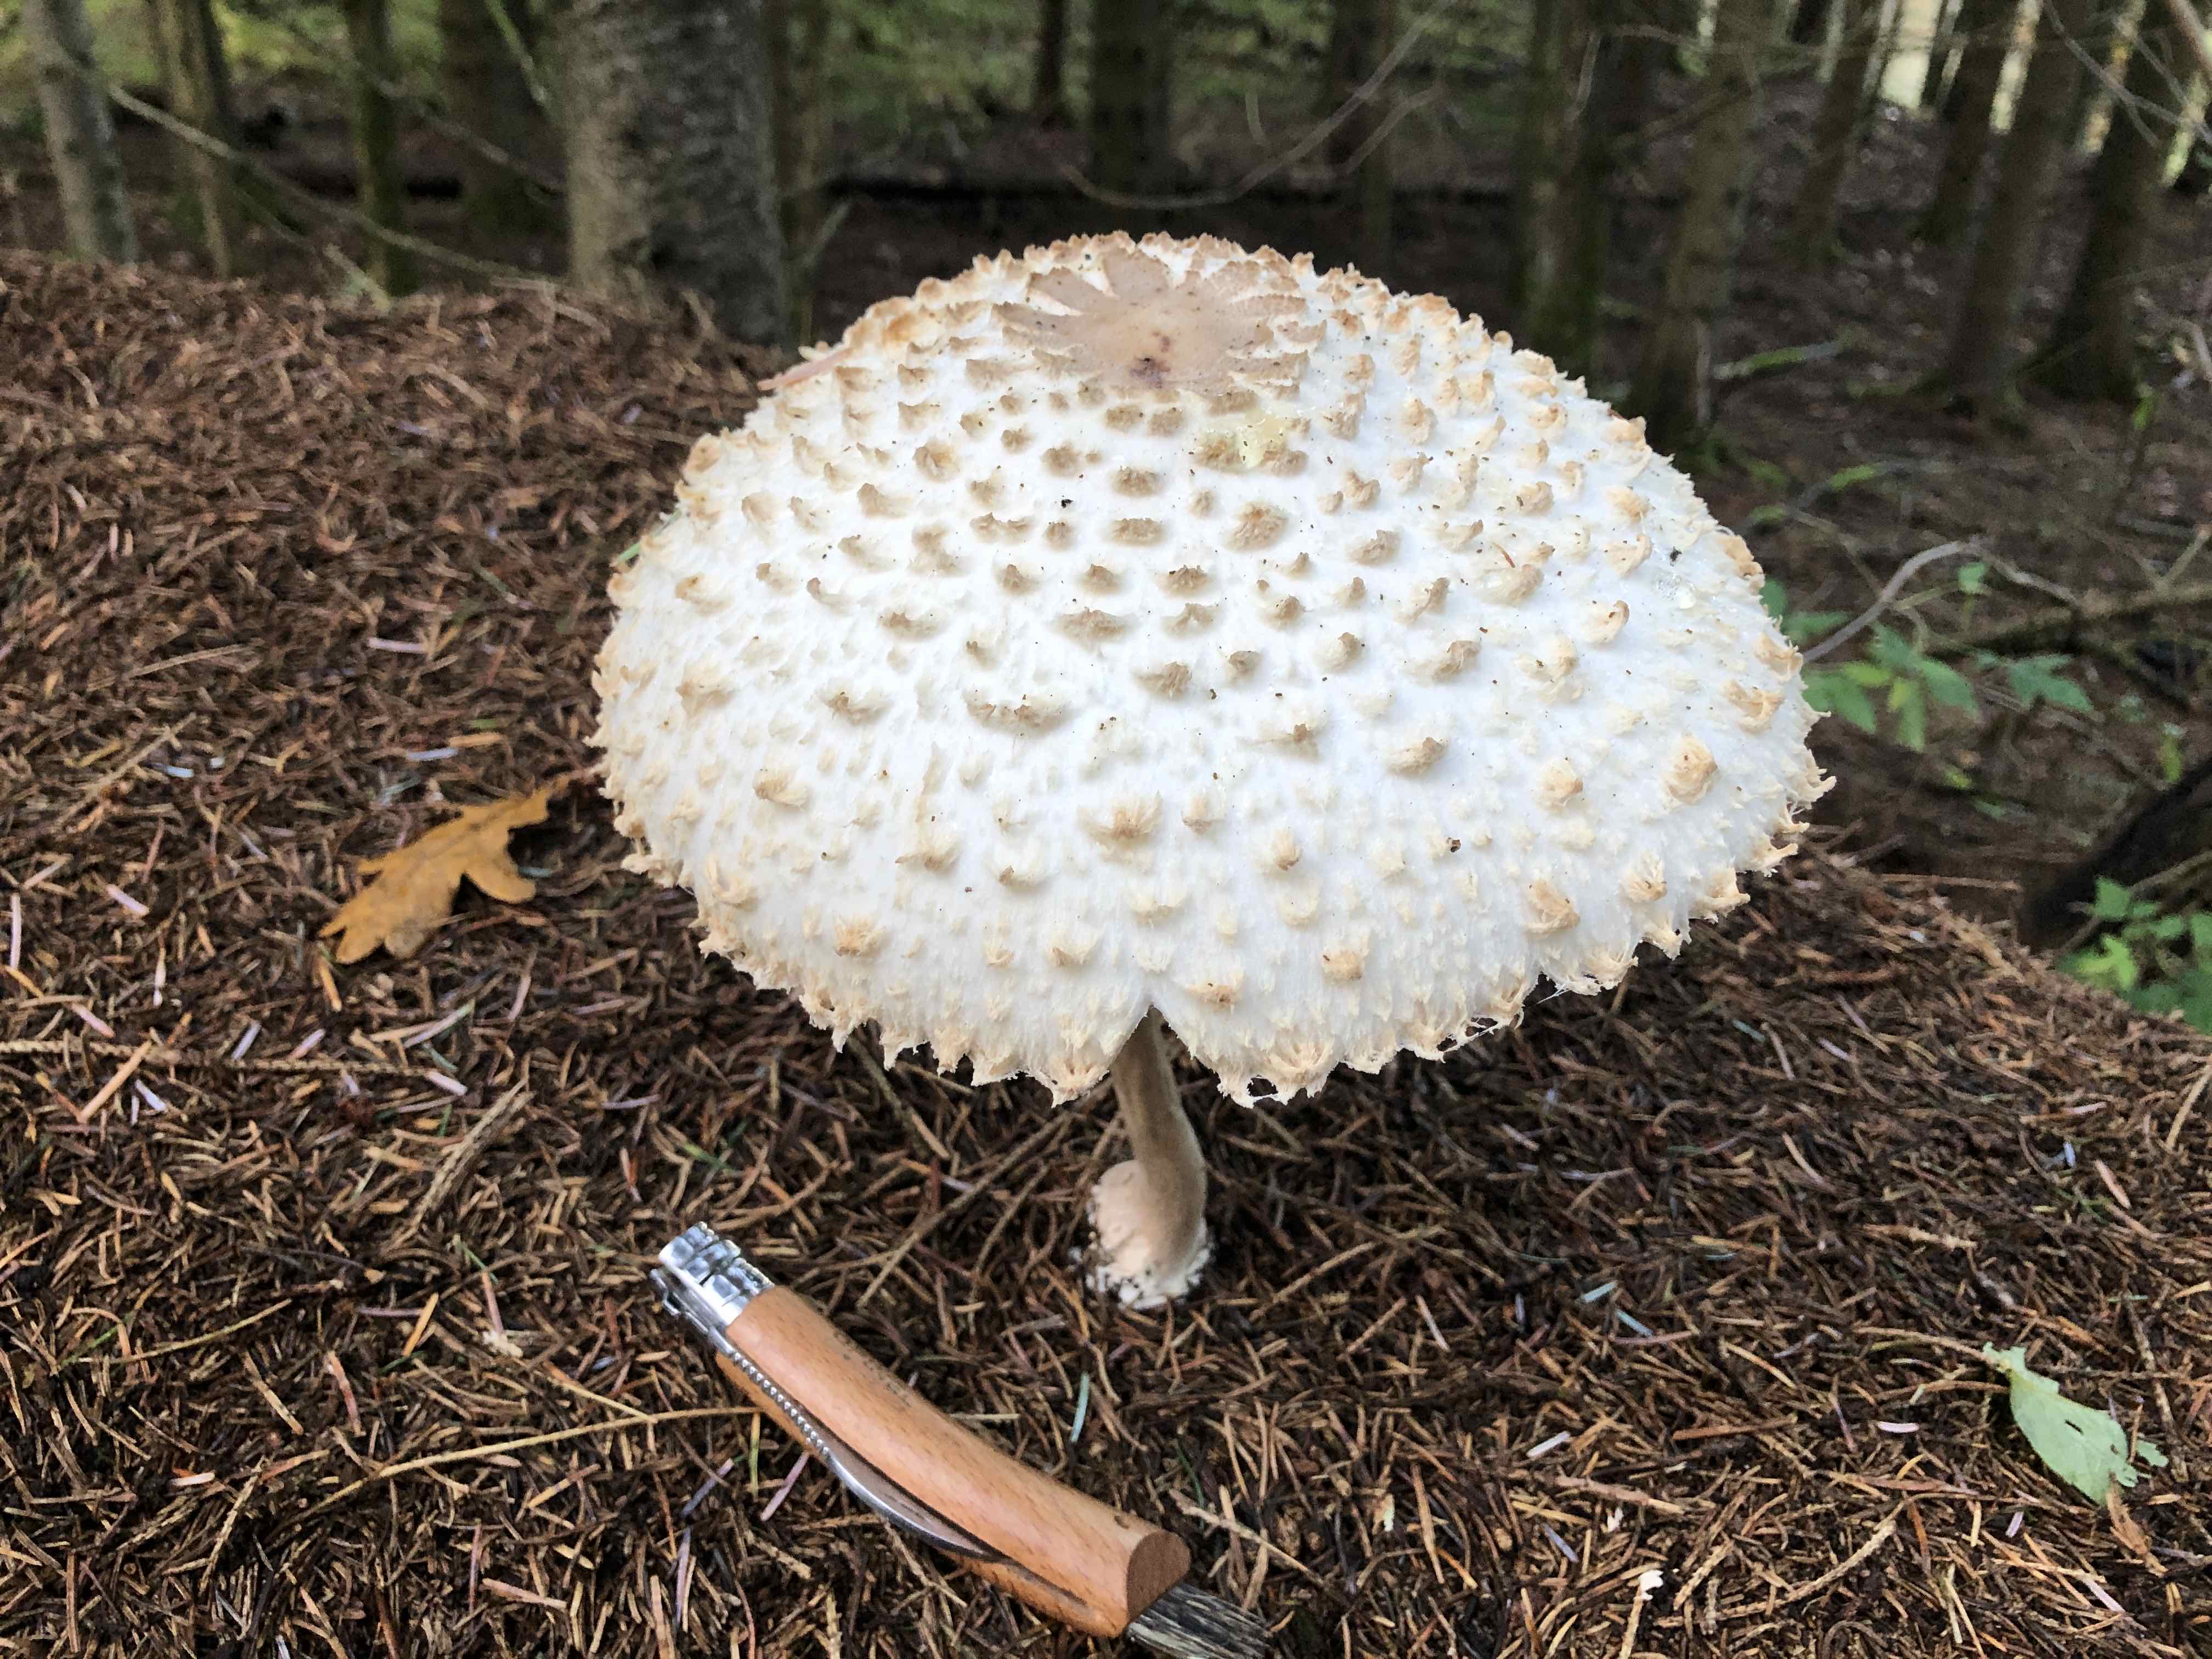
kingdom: Fungi
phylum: Basidiomycota
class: Agaricomycetes
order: Agaricales
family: Agaricaceae
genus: Leucoagaricus
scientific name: Leucoagaricus nympharum
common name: gran-silkehat
